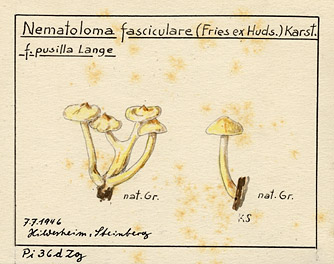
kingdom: Fungi
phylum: Basidiomycota
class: Agaricomycetes
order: Agaricales
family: Strophariaceae
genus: Hypholoma
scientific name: Hypholoma fasciculare
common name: Sulphur tuft
